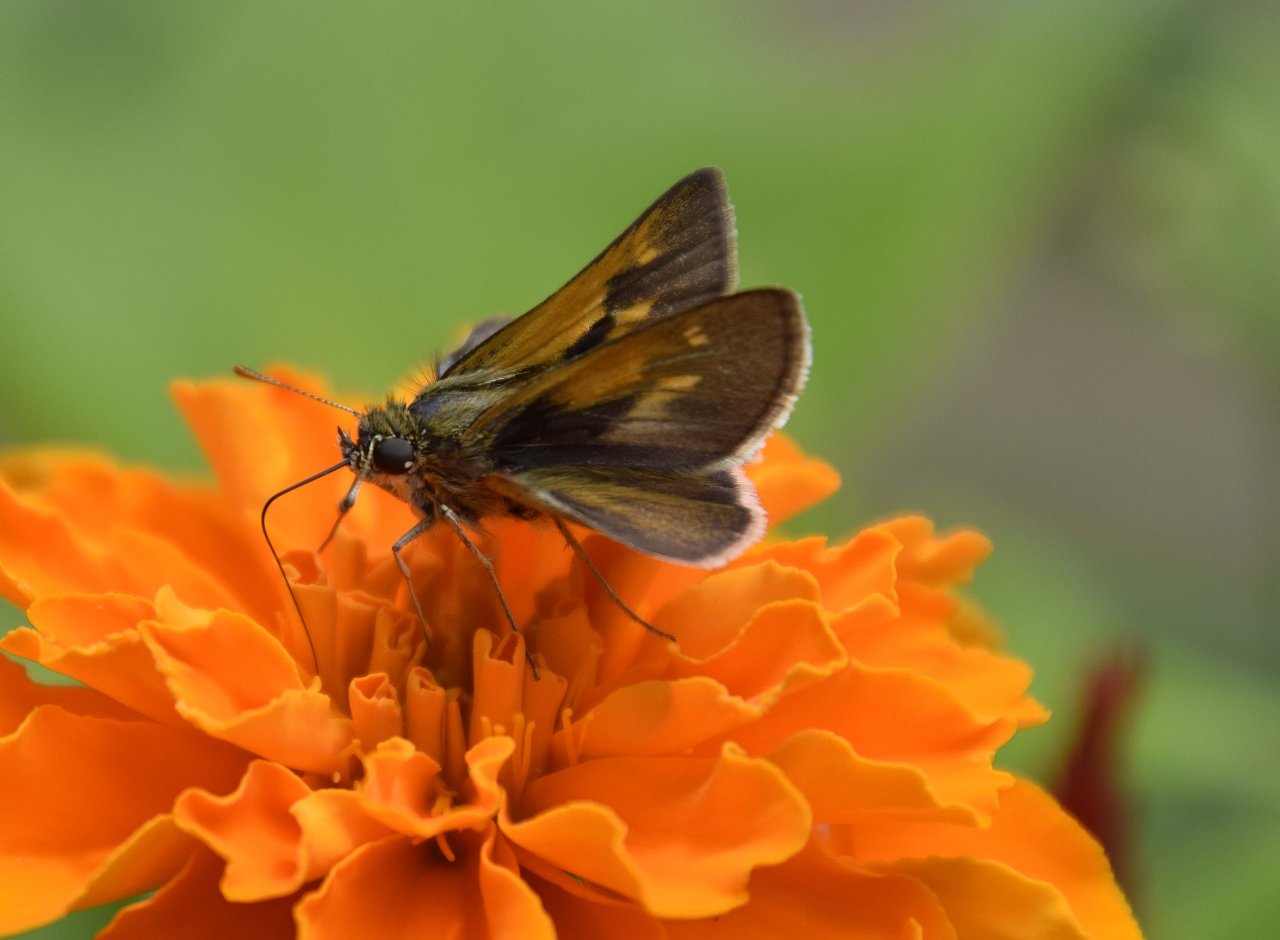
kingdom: Animalia
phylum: Arthropoda
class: Insecta
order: Lepidoptera
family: Hesperiidae
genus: Polites
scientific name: Polites
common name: Long Dash Skipper
